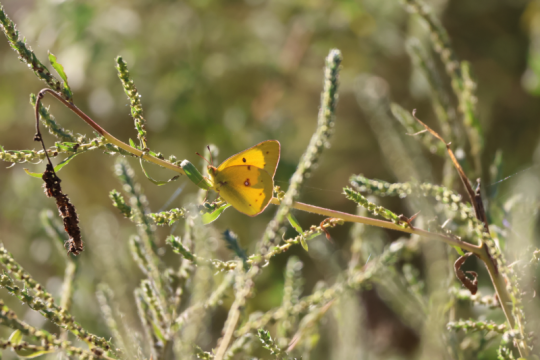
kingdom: Animalia
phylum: Arthropoda
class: Insecta
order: Lepidoptera
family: Pieridae
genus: Colias
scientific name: Colias eurytheme
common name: Orange Sulphur
